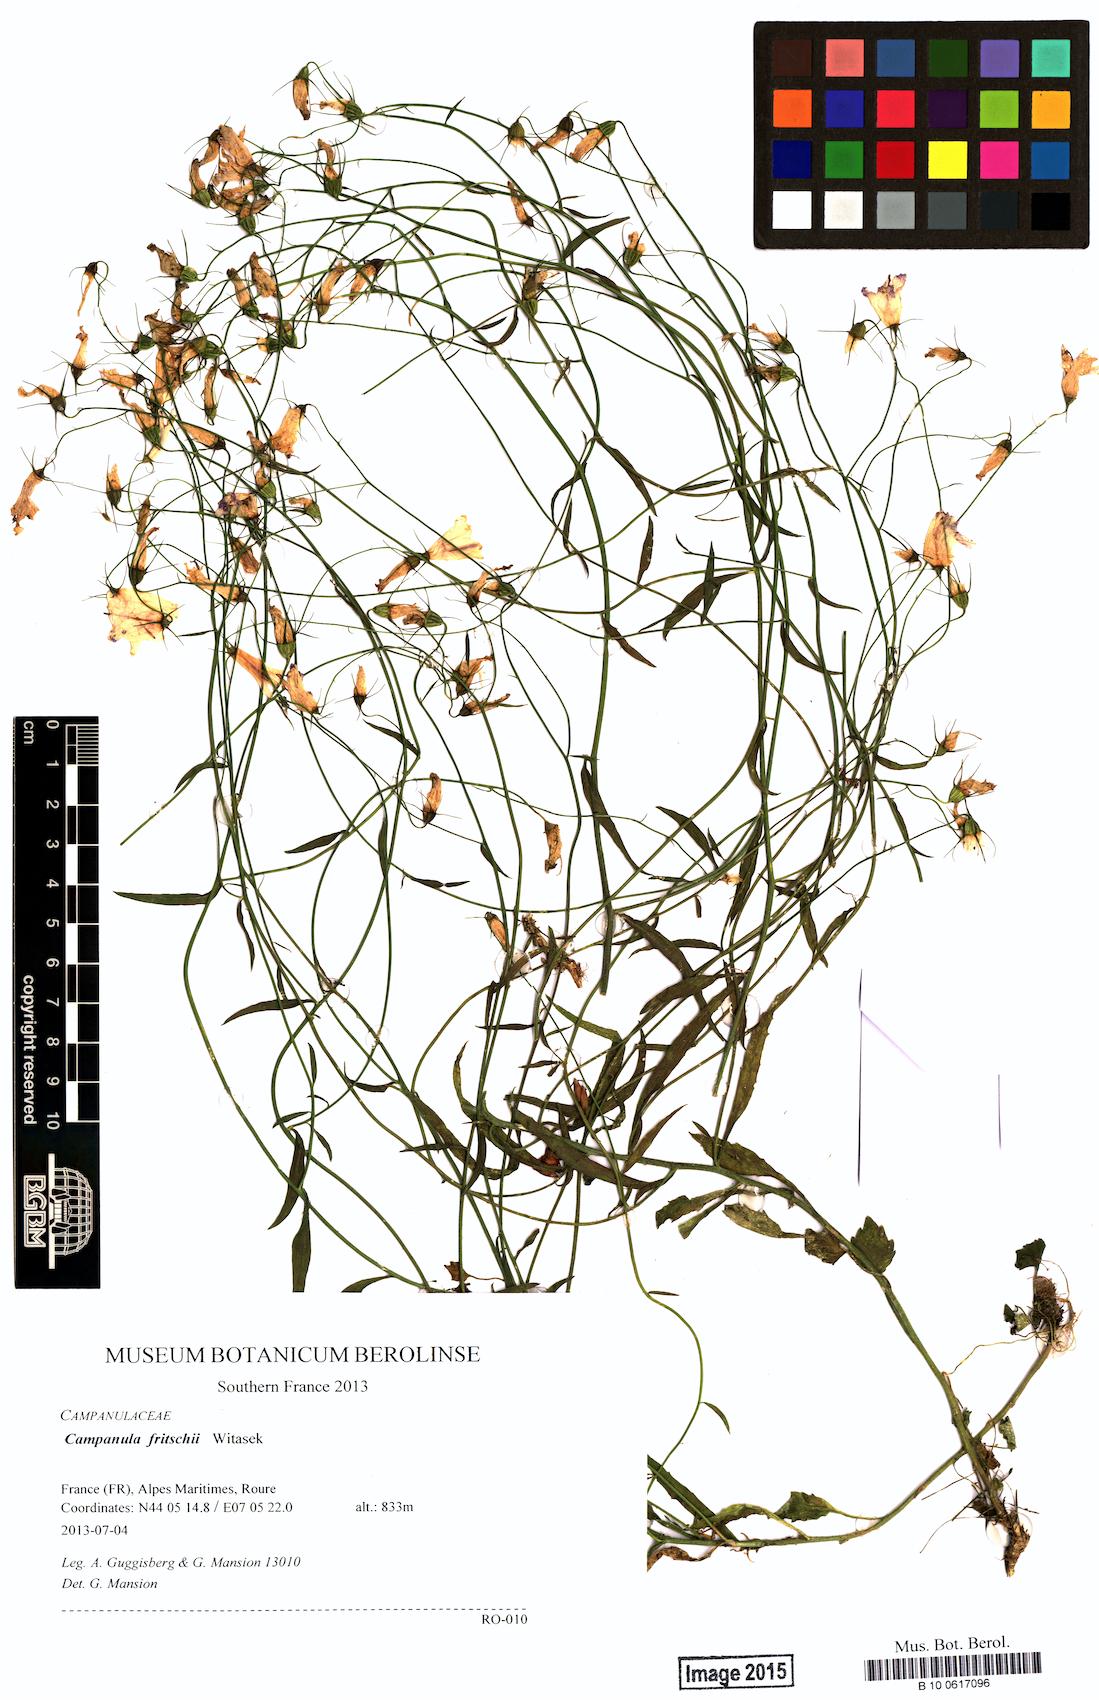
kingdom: Plantae
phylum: Tracheophyta
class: Magnoliopsida
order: Asterales
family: Campanulaceae
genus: Campanula
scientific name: Campanula fritschii
